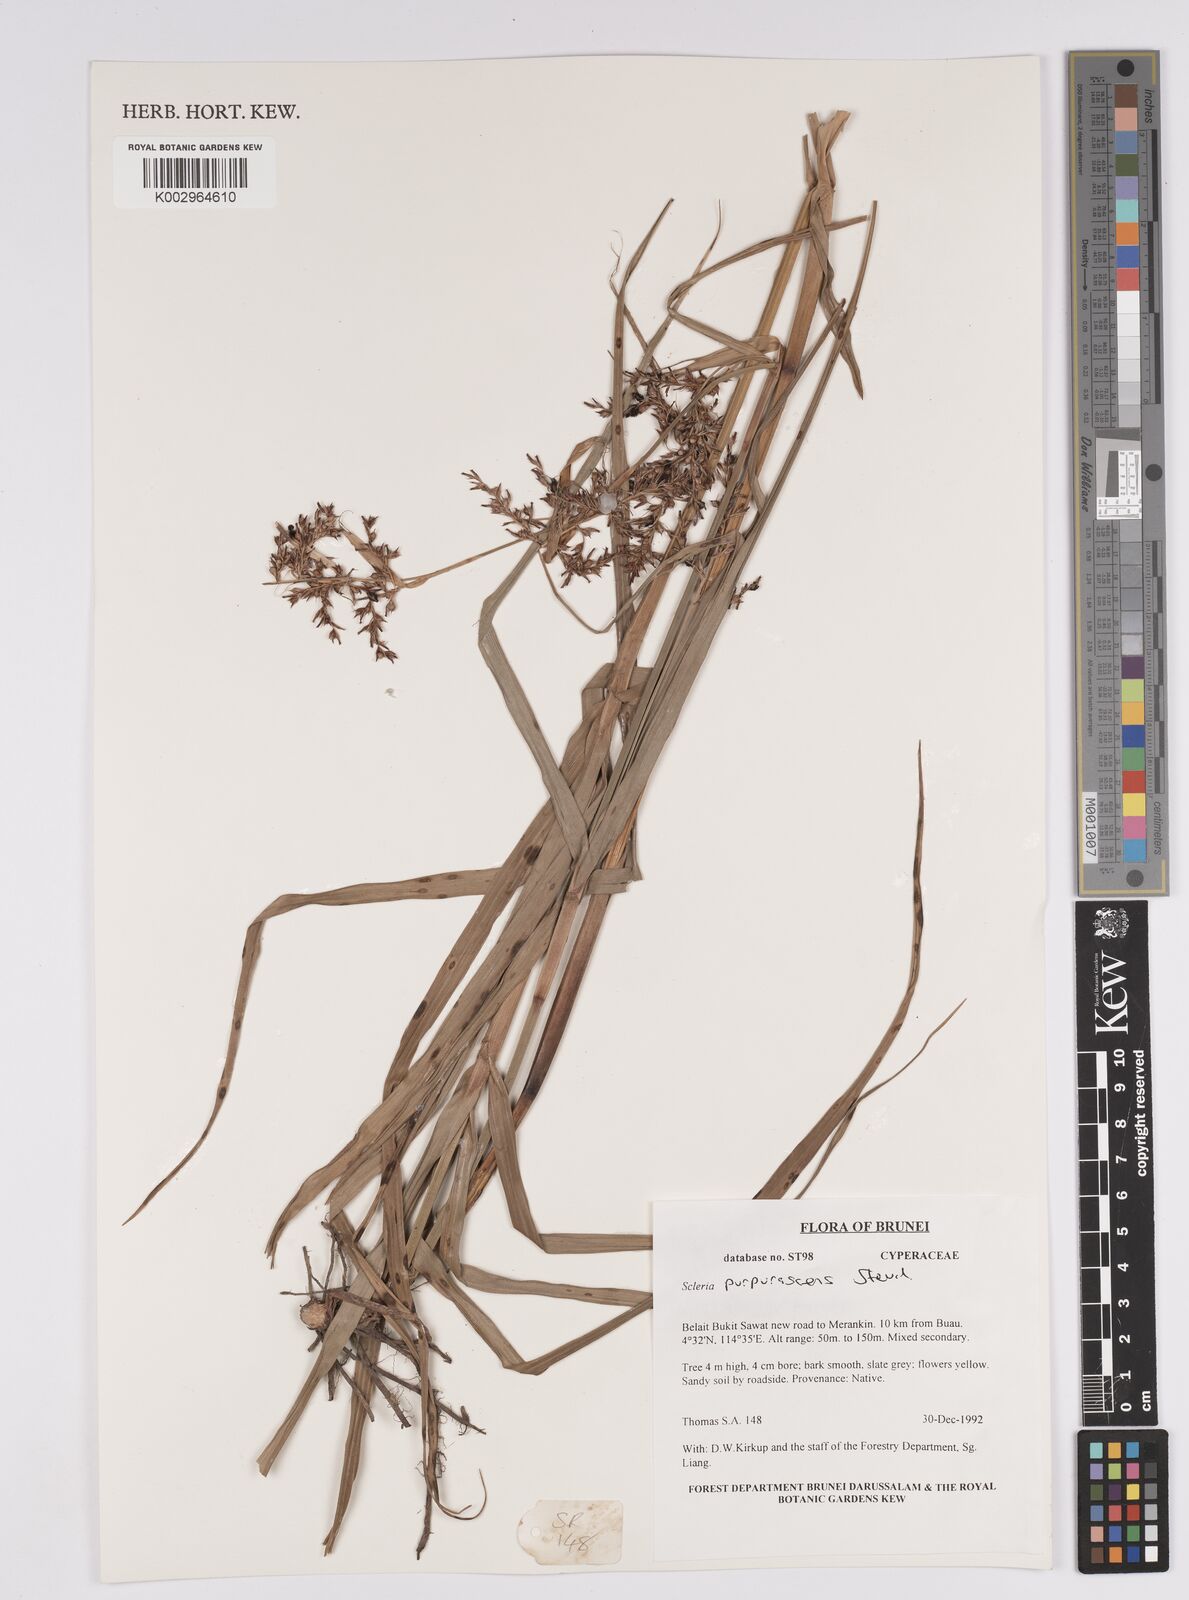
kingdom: Plantae
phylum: Tracheophyta
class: Liliopsida
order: Poales
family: Cyperaceae
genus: Scleria
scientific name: Scleria purpurascens
